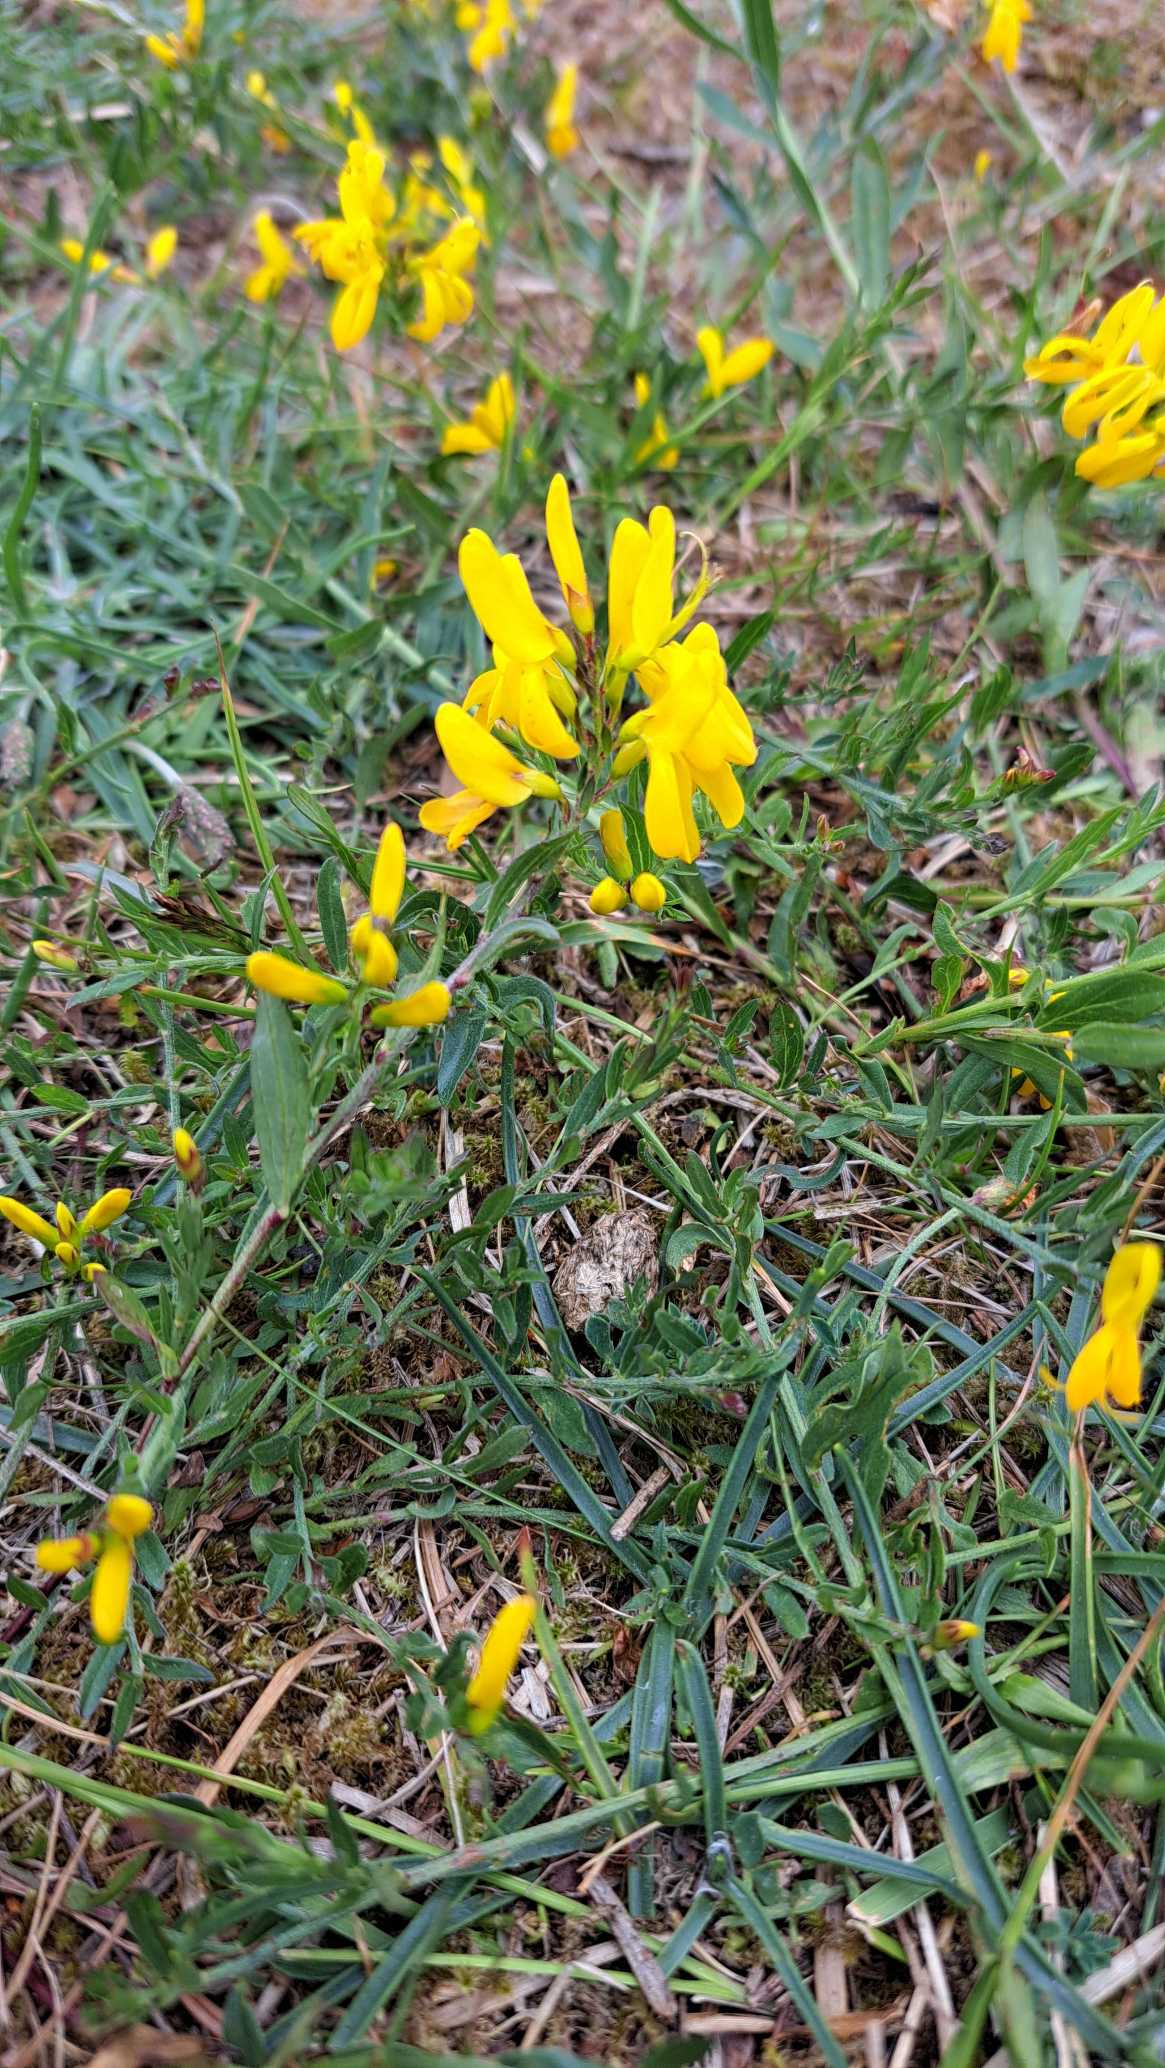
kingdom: Plantae
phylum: Tracheophyta
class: Magnoliopsida
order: Fabales
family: Fabaceae
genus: Genista
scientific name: Genista tinctoria
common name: Farve-visse
